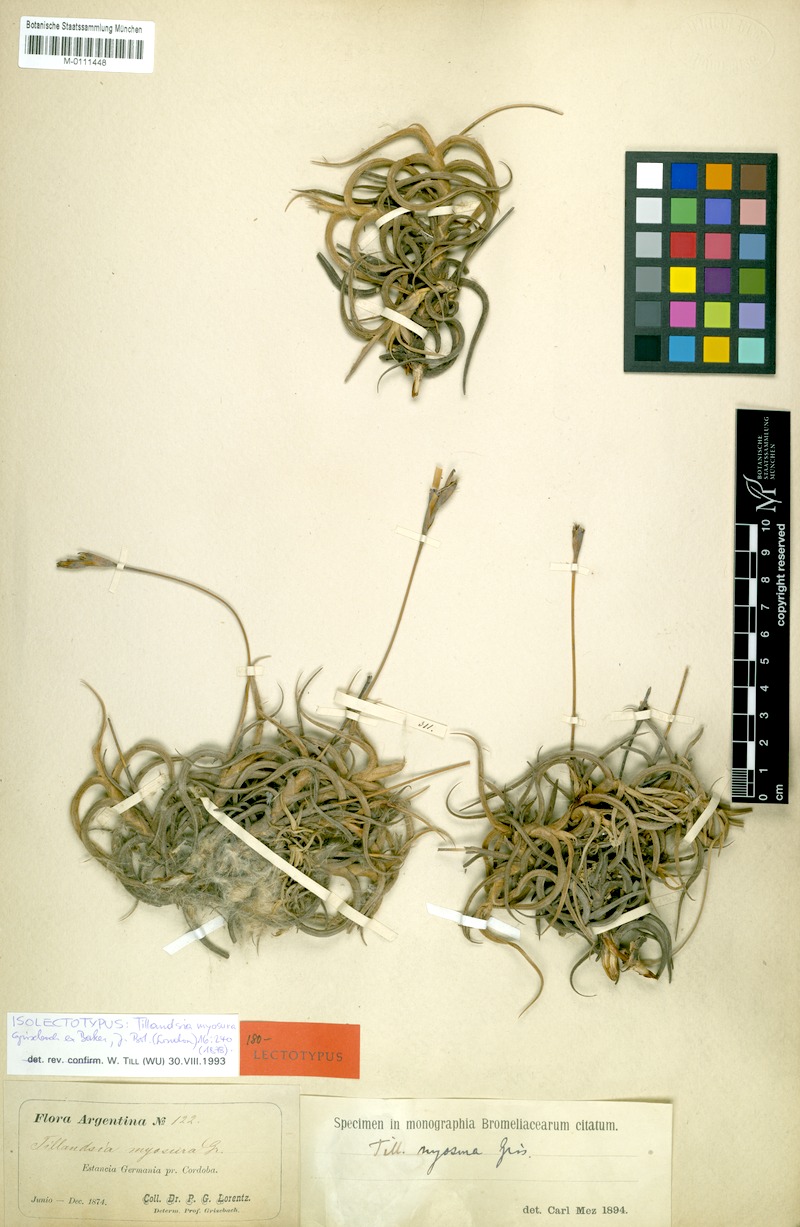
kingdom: Plantae
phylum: Tracheophyta
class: Liliopsida
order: Poales
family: Bromeliaceae
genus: Tillandsia
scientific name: Tillandsia myosura
